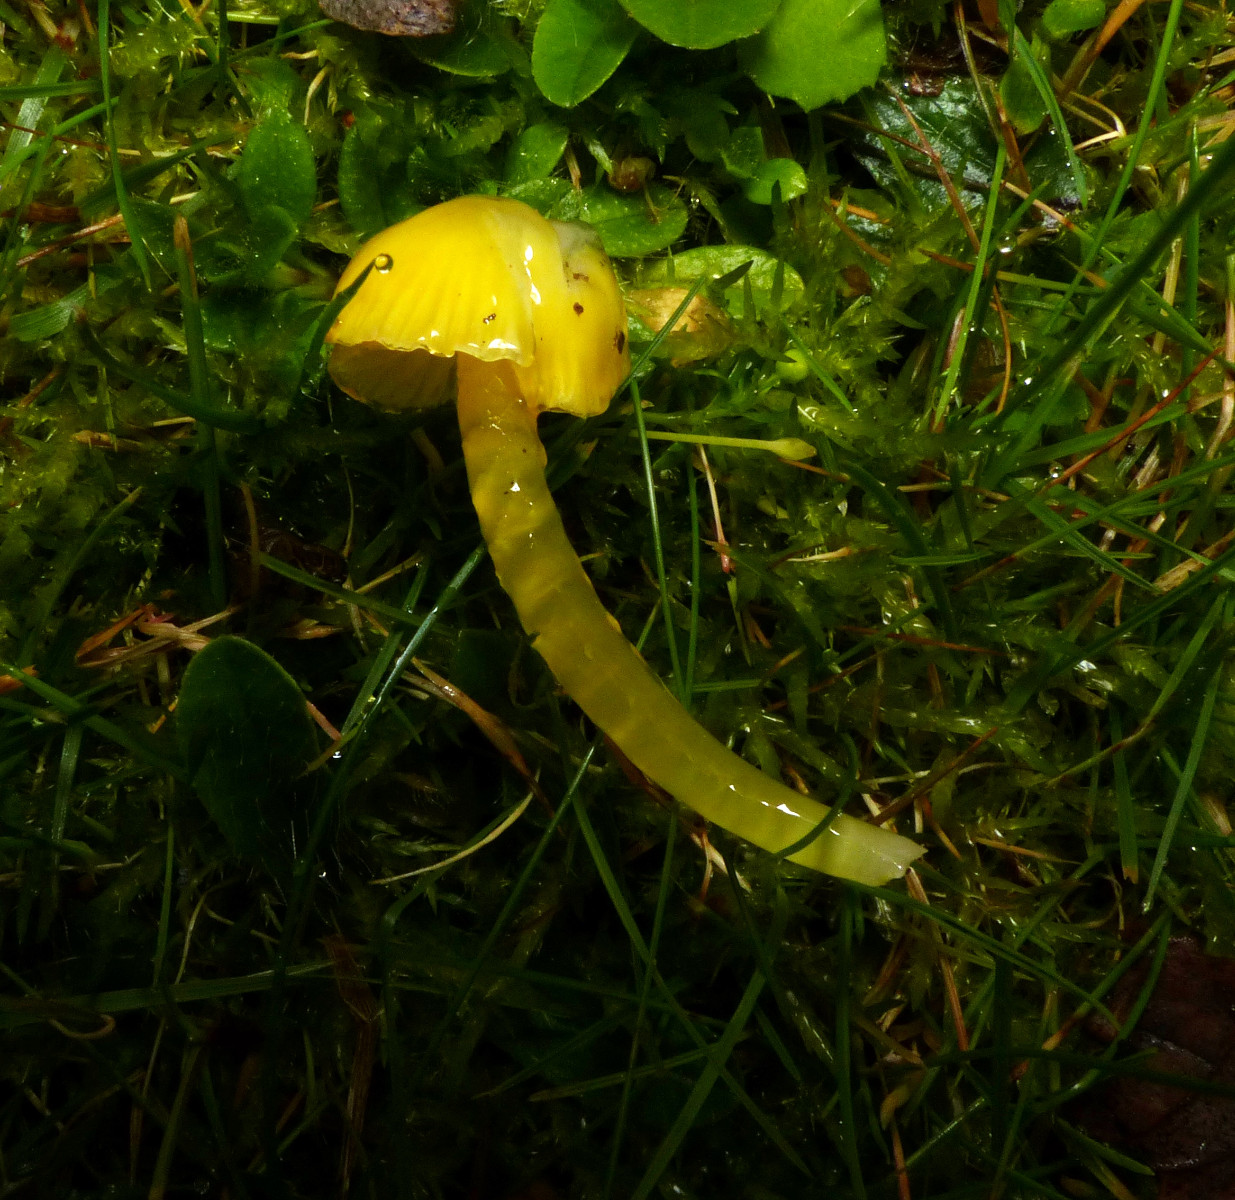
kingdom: Fungi
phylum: Basidiomycota
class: Agaricomycetes
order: Agaricales
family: Hygrophoraceae
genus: Hygrocybe
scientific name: Hygrocybe glutinipes
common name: slimstokket vokshat
